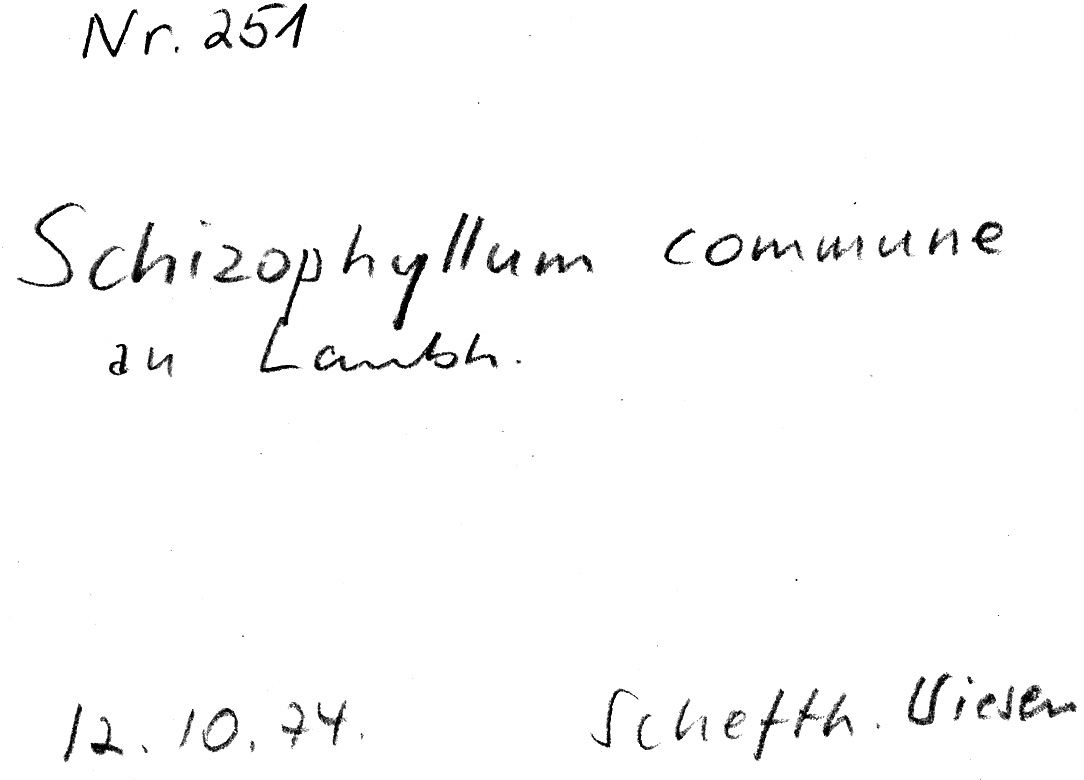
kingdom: Fungi
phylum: Basidiomycota
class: Agaricomycetes
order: Agaricales
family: Schizophyllaceae
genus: Schizophyllum
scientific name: Schizophyllum commune
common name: Common porecrust
